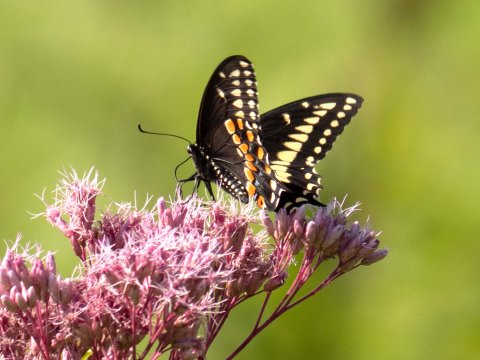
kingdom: Animalia
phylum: Arthropoda
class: Insecta
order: Lepidoptera
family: Papilionidae
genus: Papilio
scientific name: Papilio polyxenes
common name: Black Swallowtail
